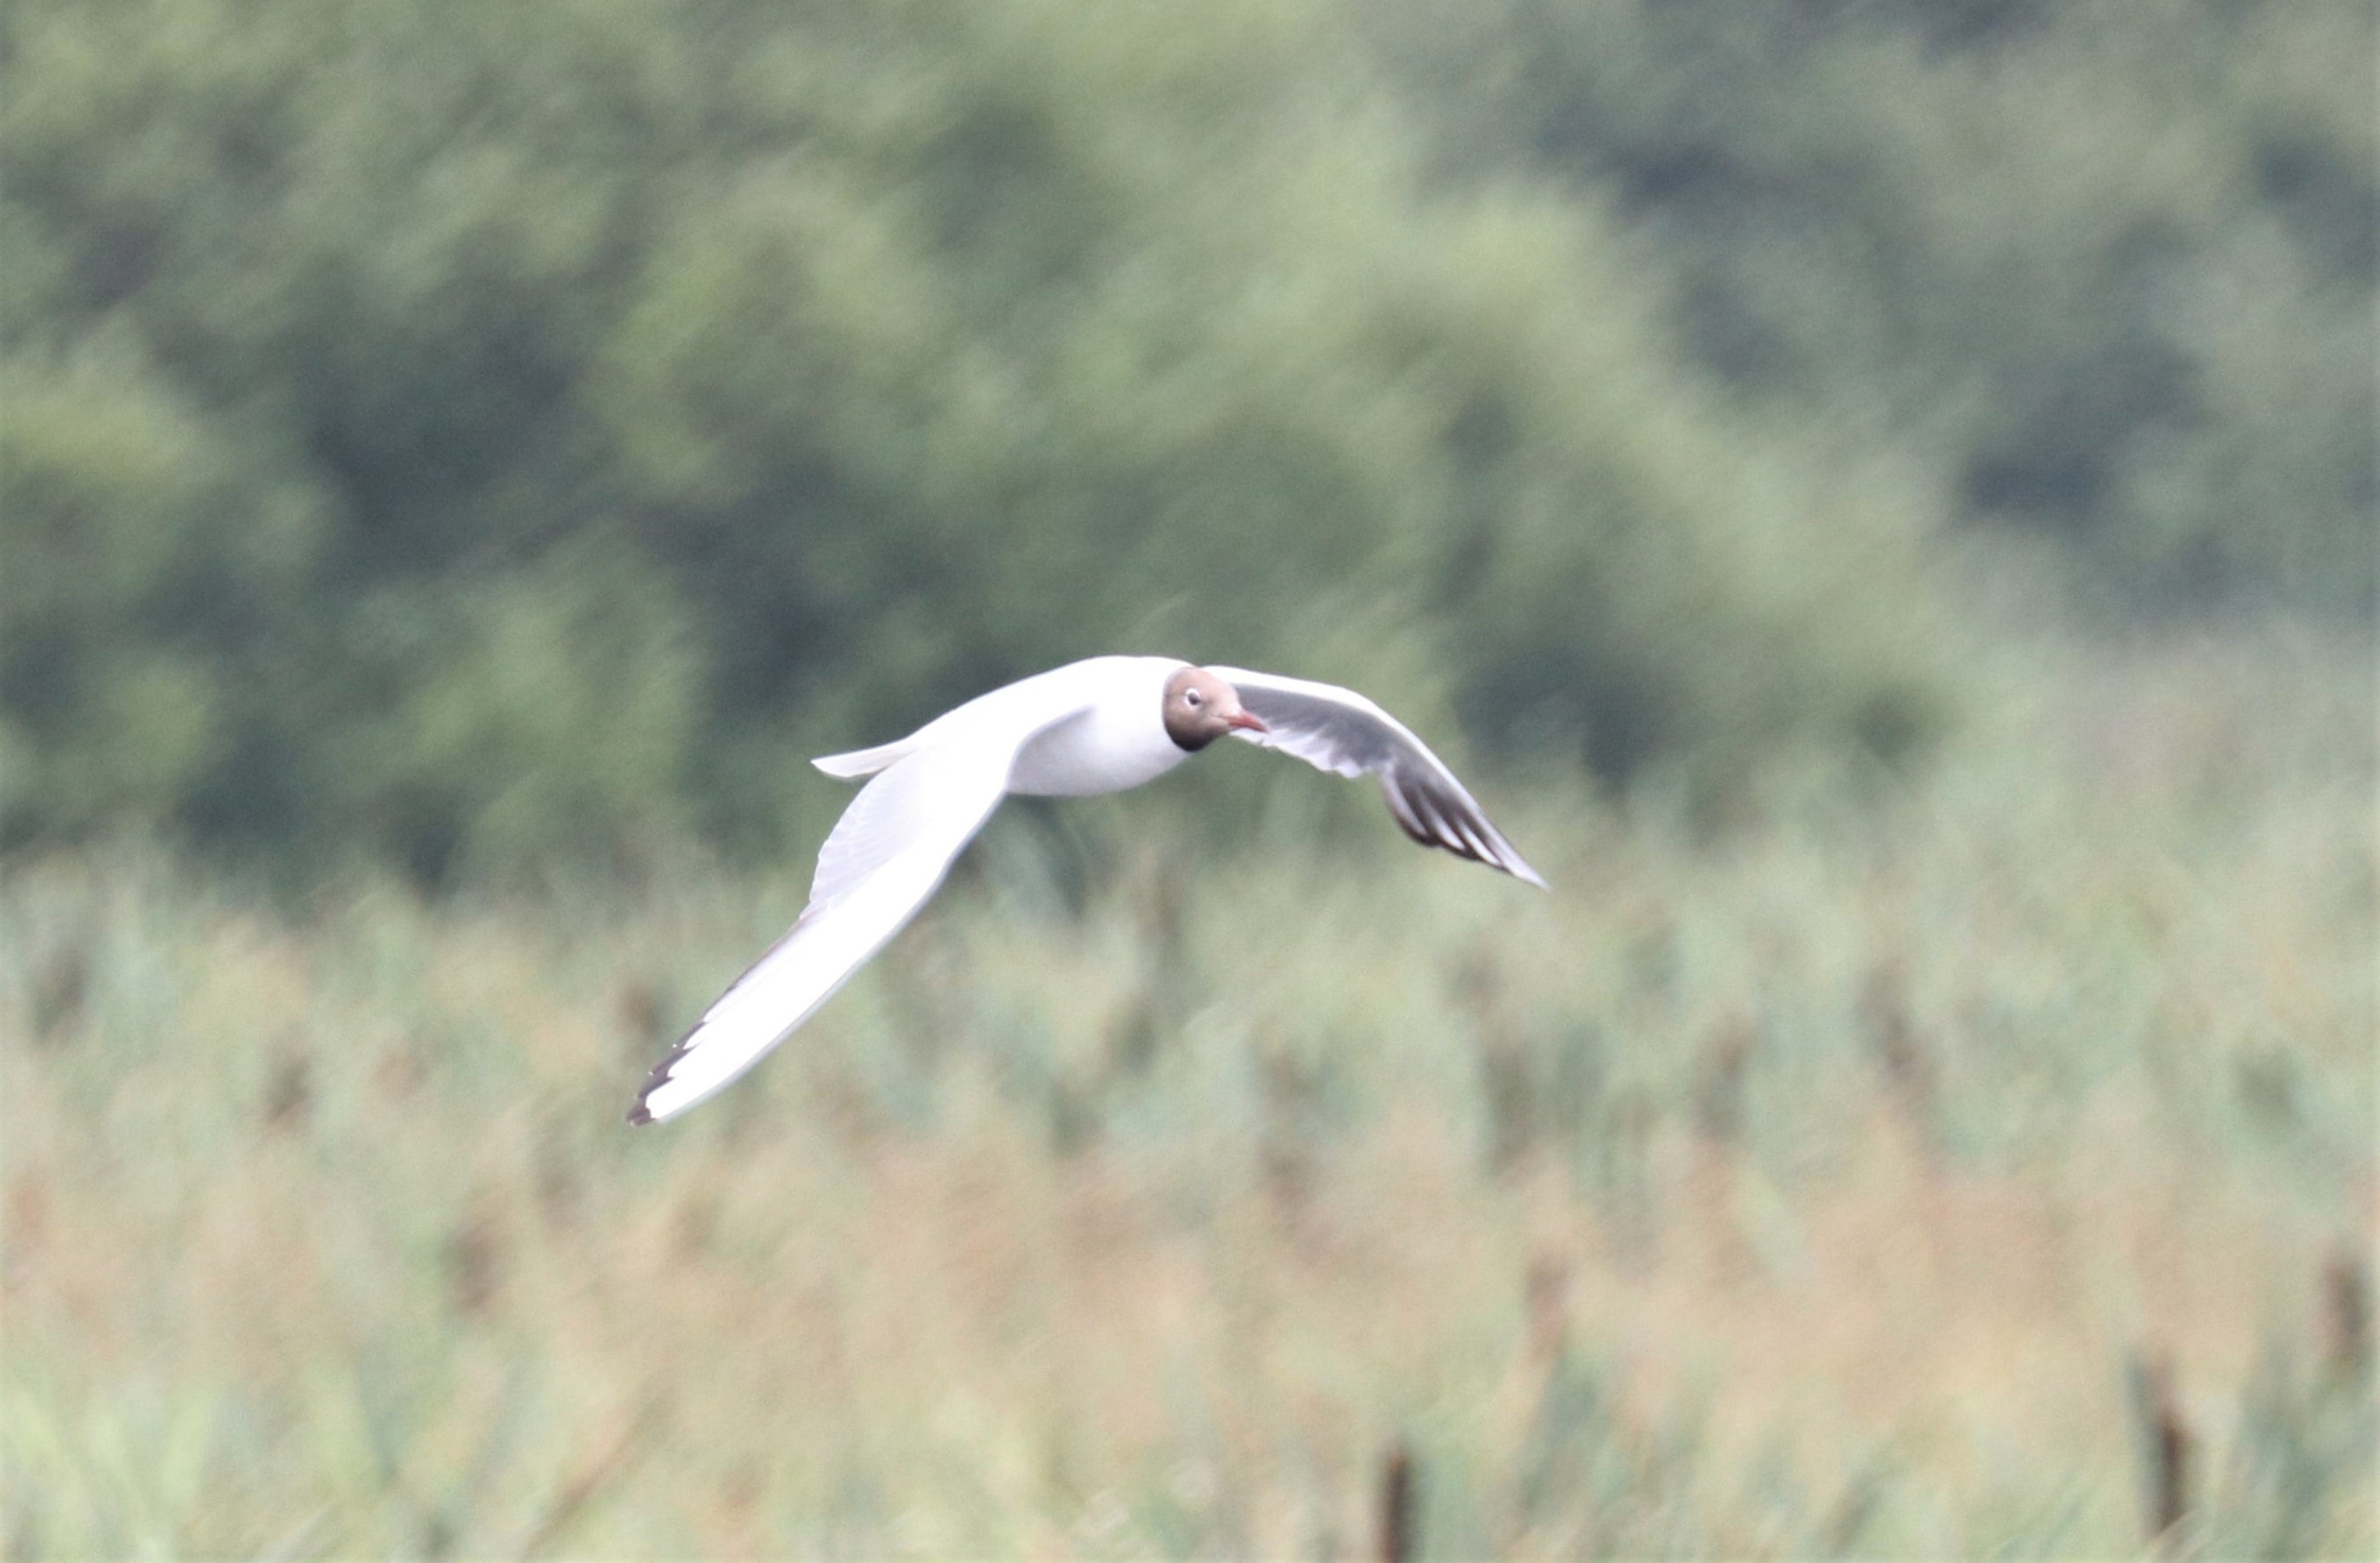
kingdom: Animalia
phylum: Chordata
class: Aves
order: Charadriiformes
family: Laridae
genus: Chroicocephalus
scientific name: Chroicocephalus ridibundus
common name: Hættemåge
